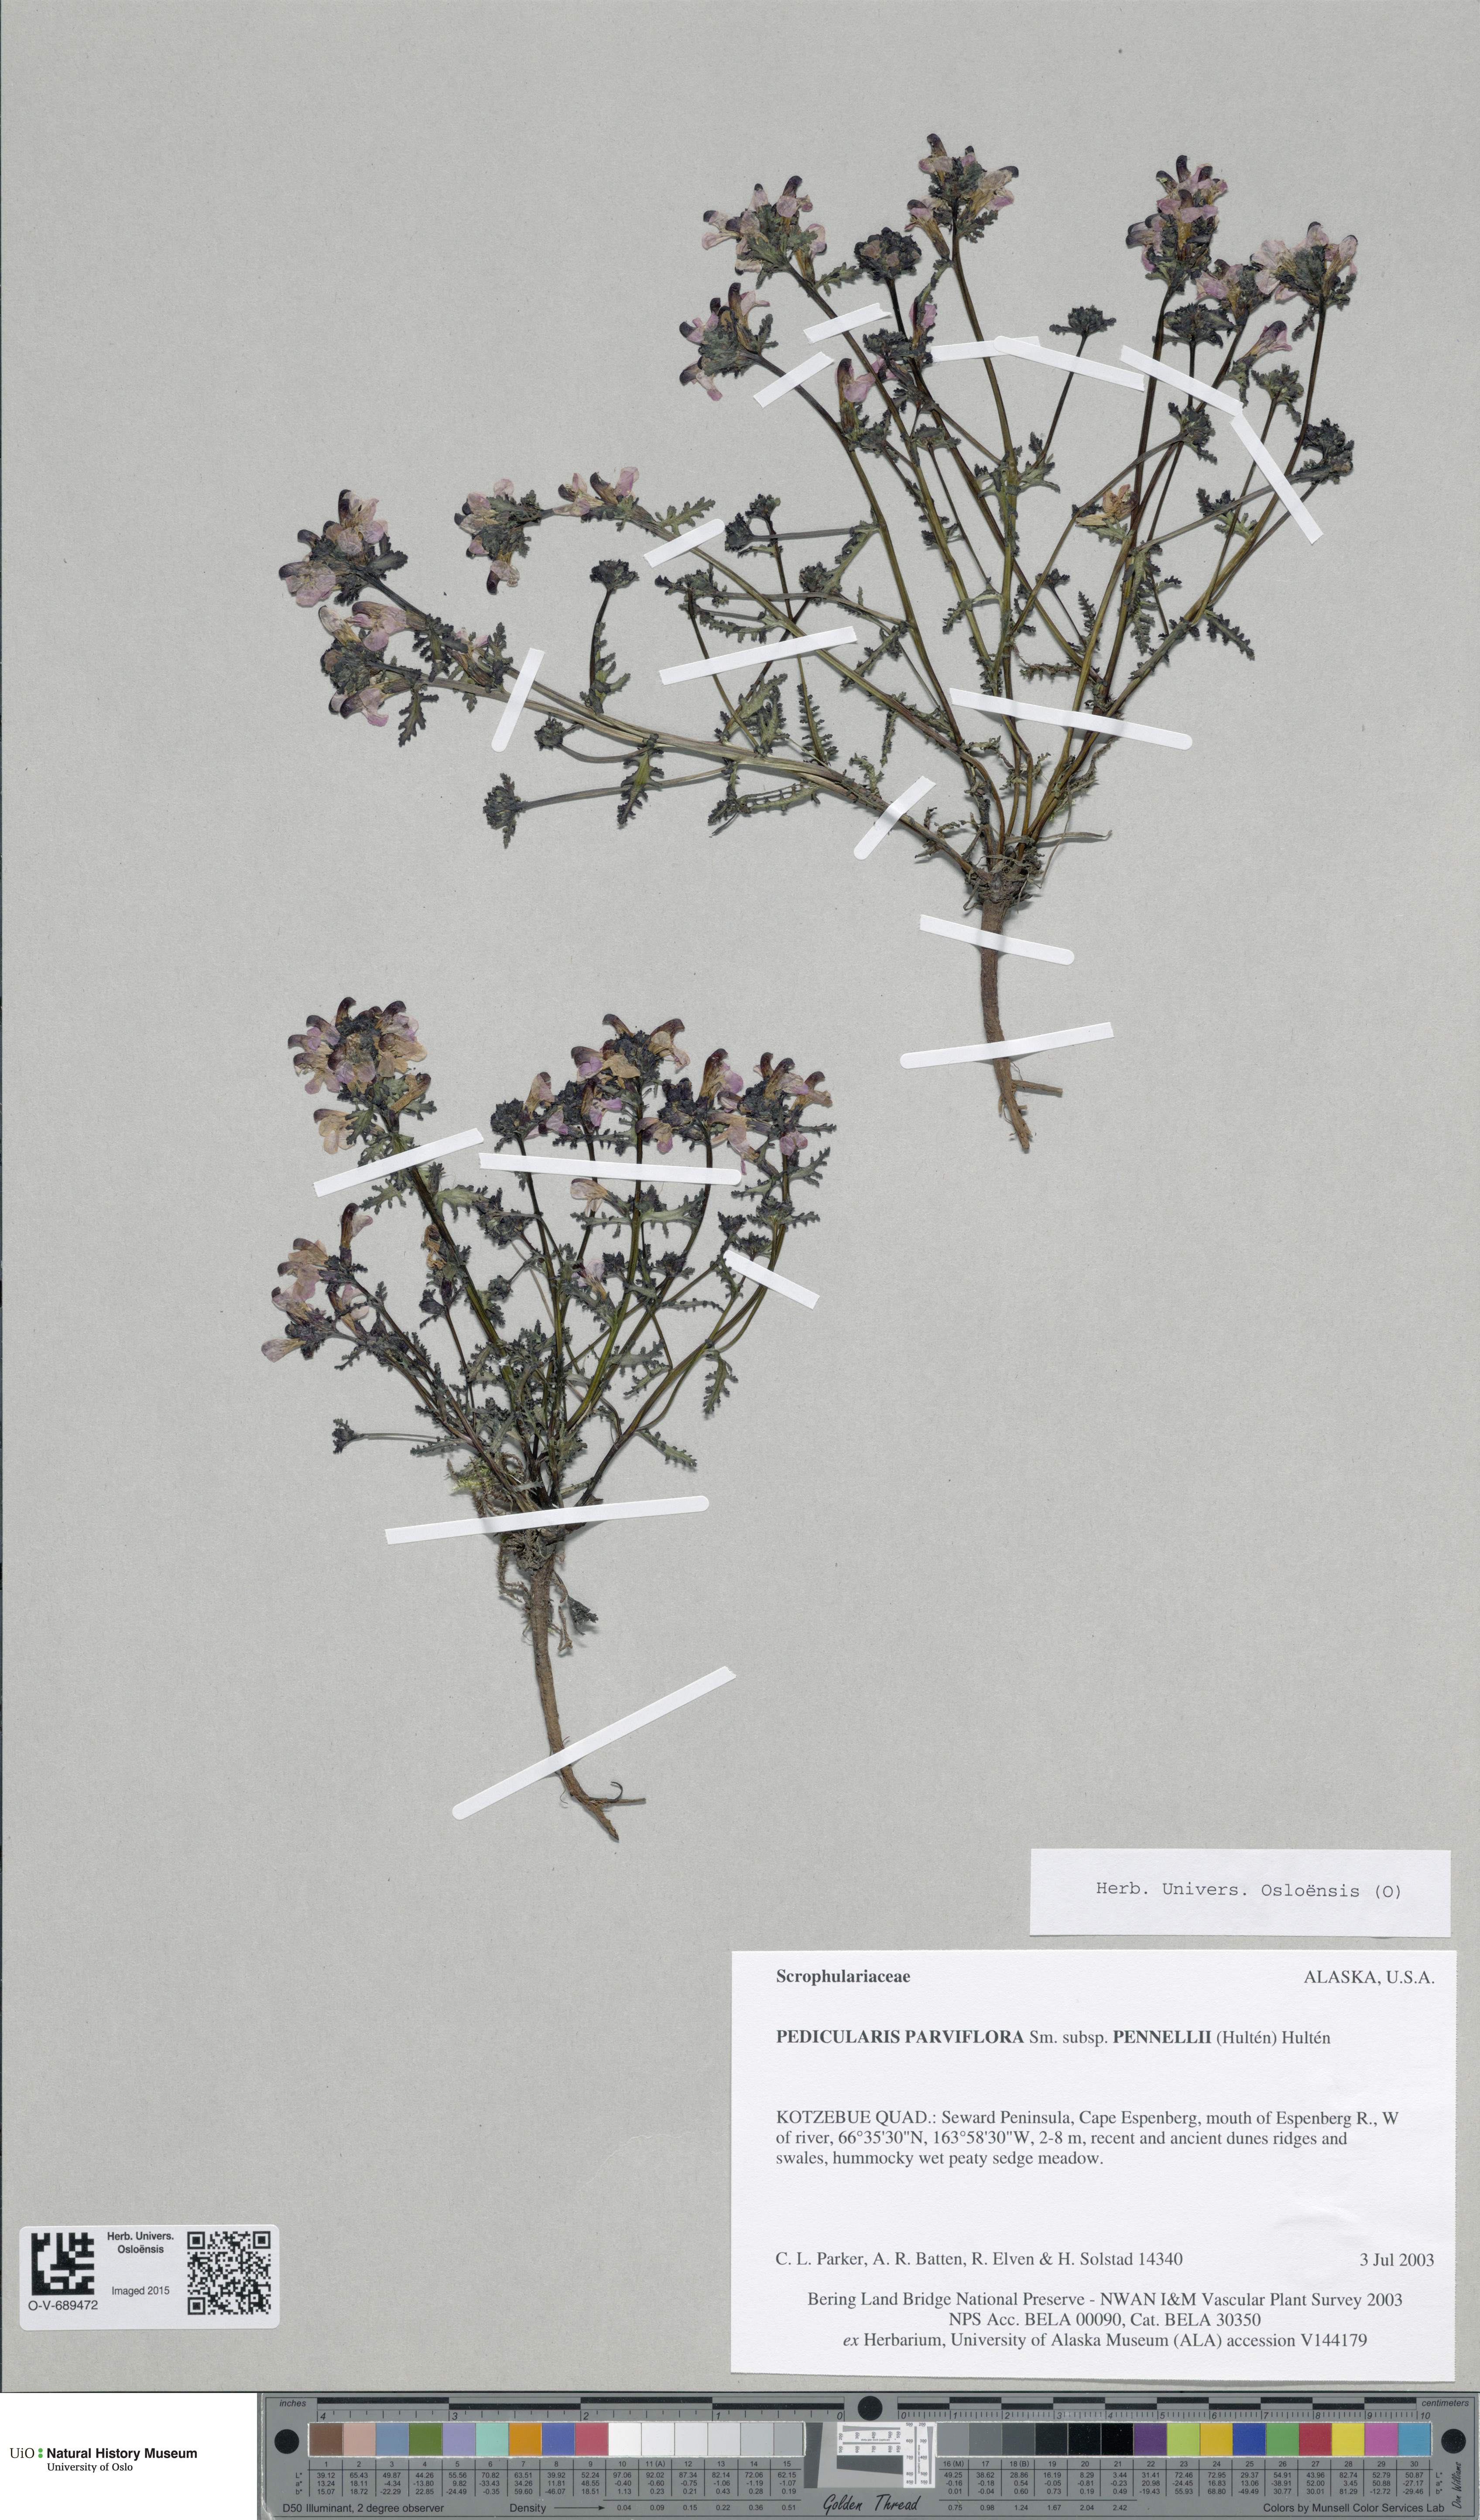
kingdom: Plantae
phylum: Tracheophyta
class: Magnoliopsida
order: Lamiales
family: Orobanchaceae
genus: Pedicularis
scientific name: Pedicularis pennellii
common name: Pennell's lousewort
